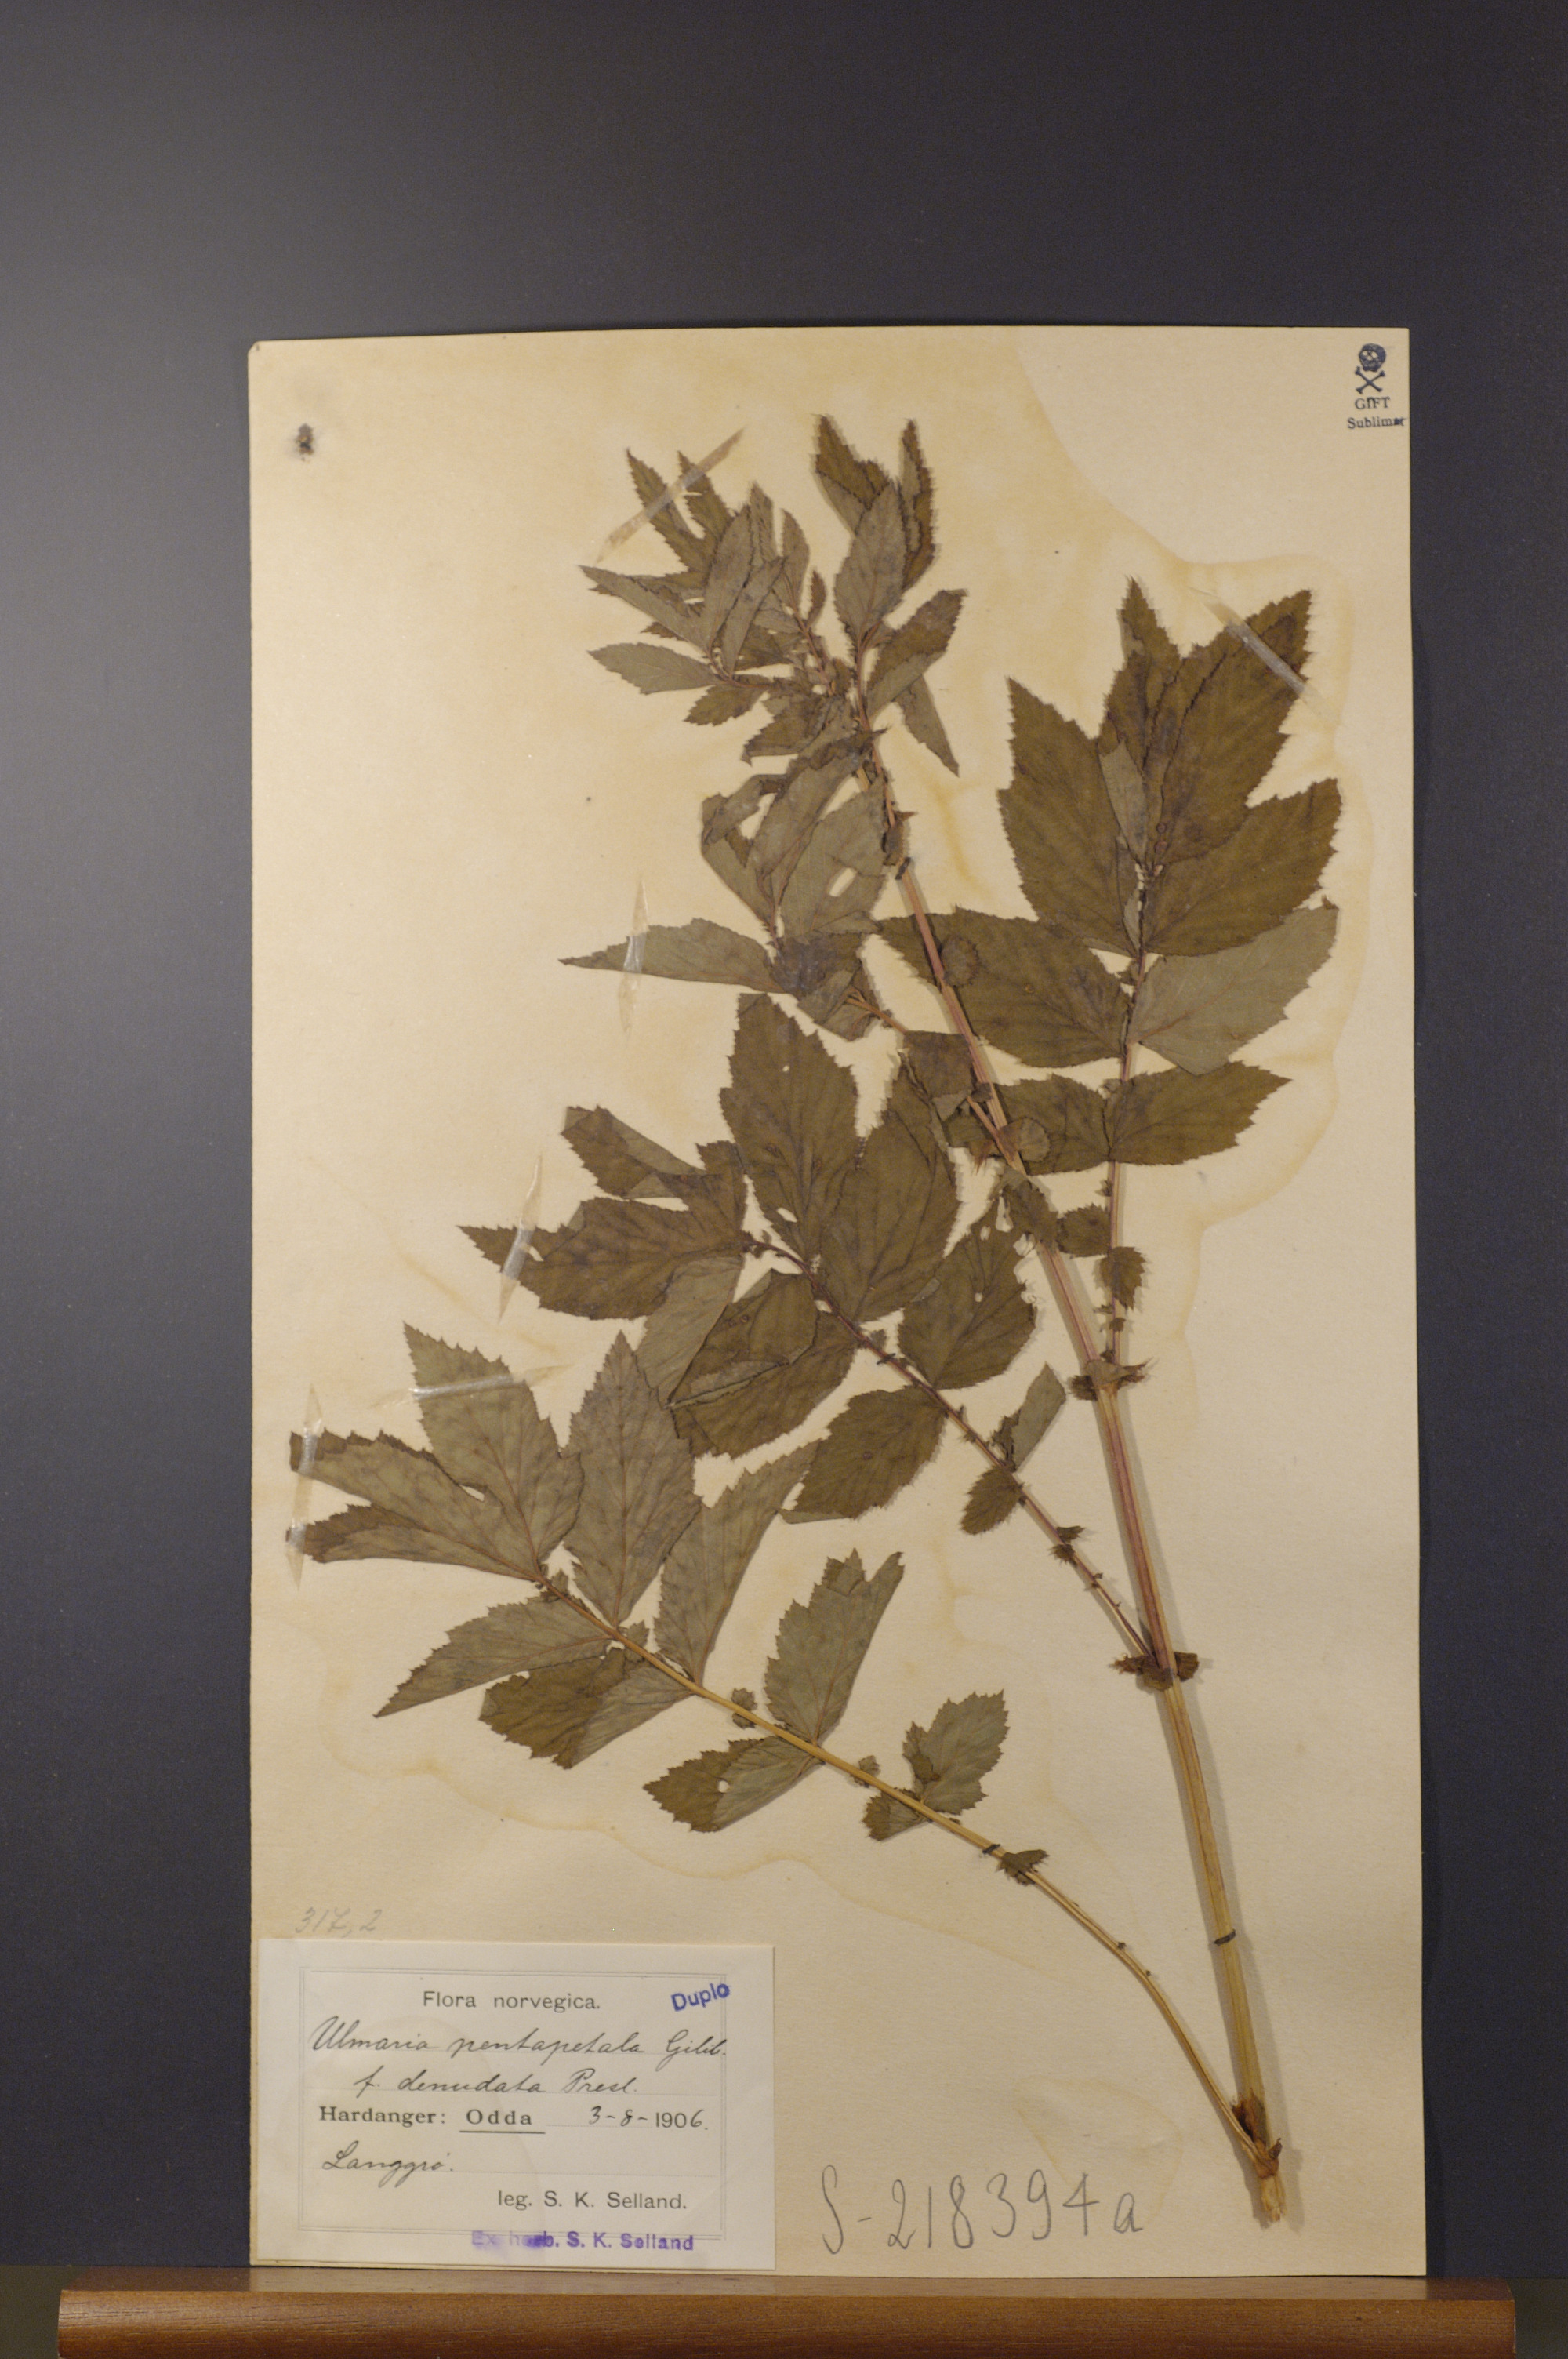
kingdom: Plantae
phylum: Tracheophyta
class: Magnoliopsida
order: Rosales
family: Rosaceae
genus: Filipendula
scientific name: Filipendula ulmaria
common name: Meadowsweet
